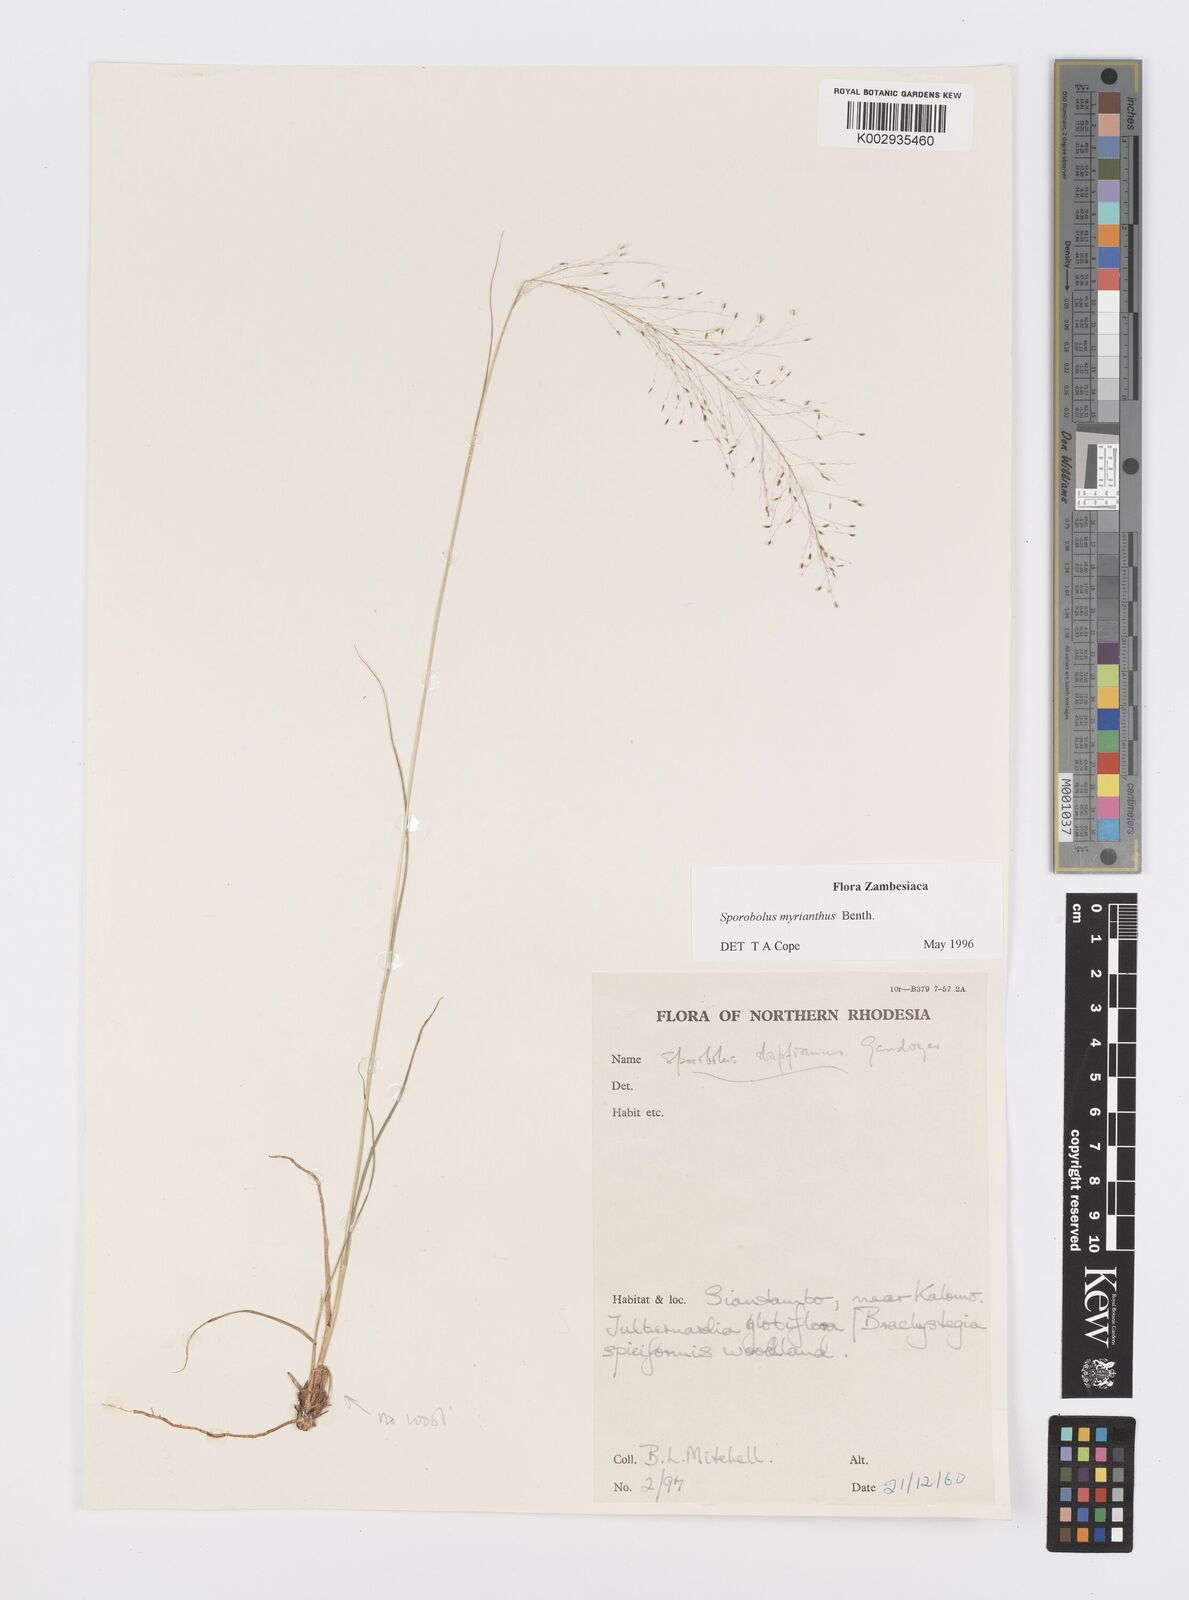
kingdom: Plantae
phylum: Tracheophyta
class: Liliopsida
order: Poales
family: Poaceae
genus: Sporobolus
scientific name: Sporobolus myrianthus
